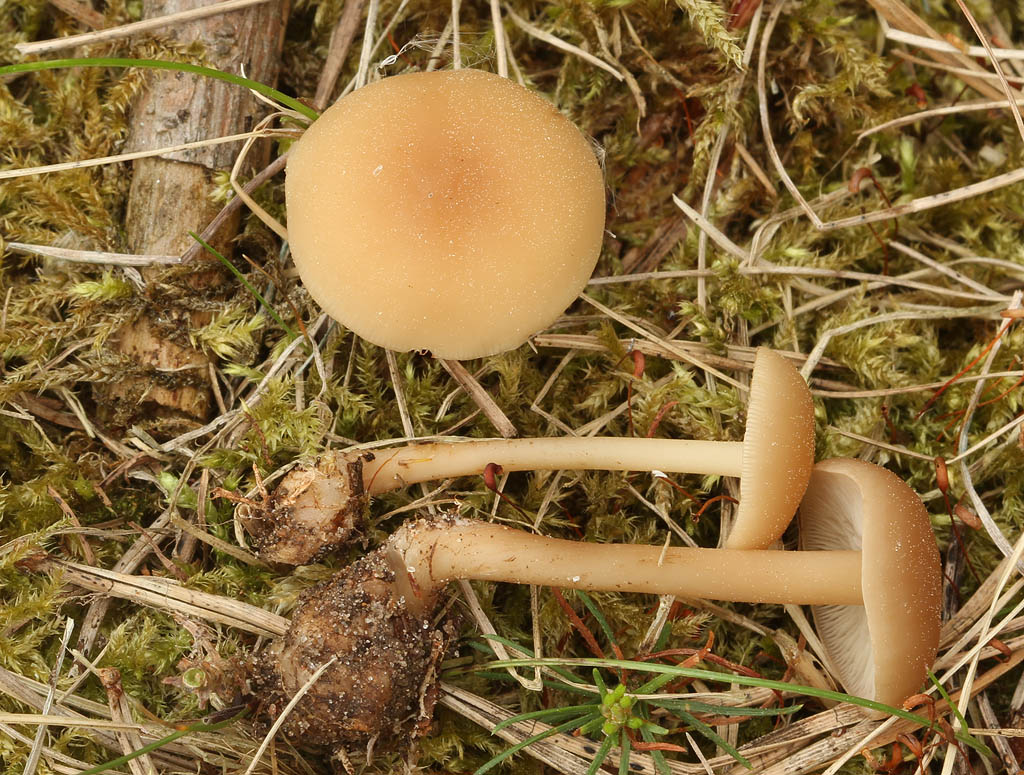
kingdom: Fungi
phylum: Basidiomycota
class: Agaricomycetes
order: Agaricales
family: Omphalotaceae
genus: Gymnopus
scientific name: Gymnopus aquosus
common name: bleg fladhat
